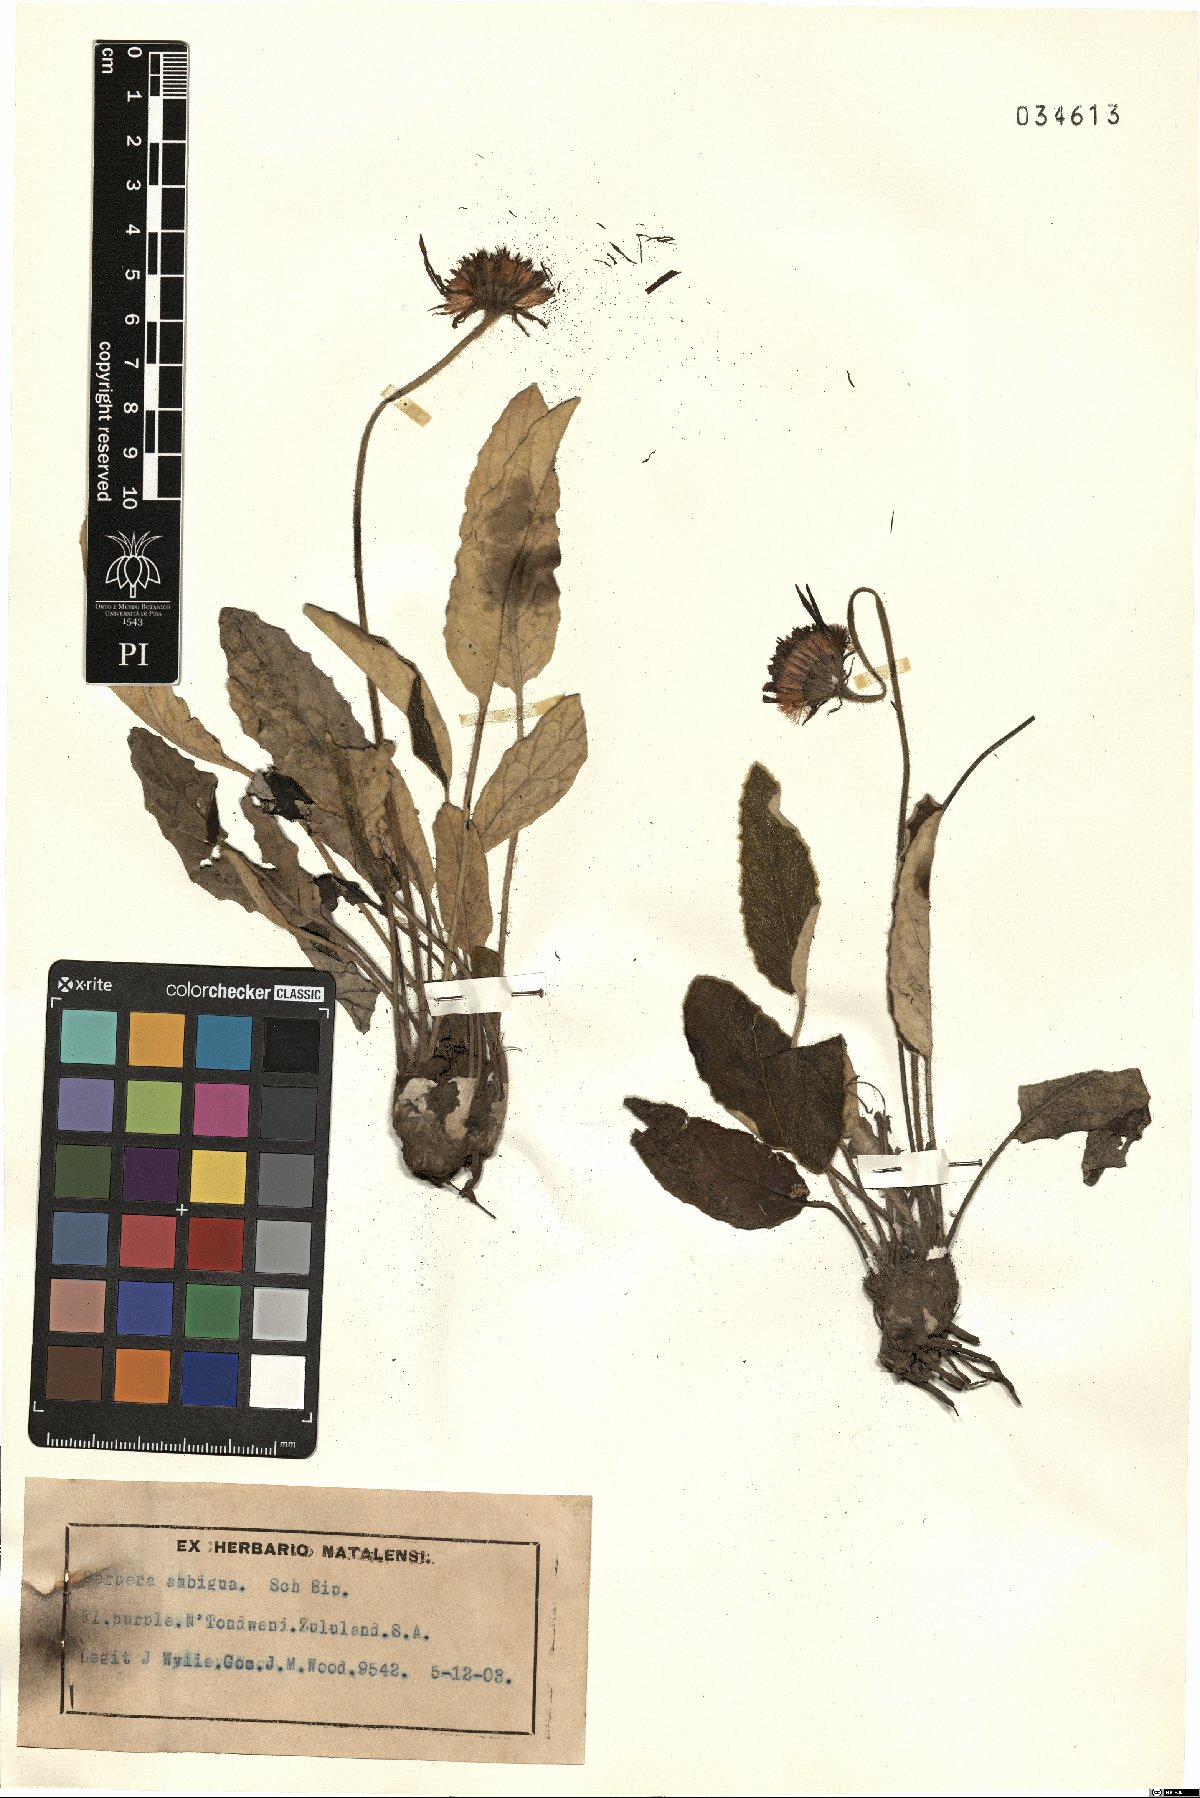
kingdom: Plantae
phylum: Tracheophyta
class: Magnoliopsida
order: Asterales
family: Asteraceae
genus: Gerbera
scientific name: Gerbera ambigua
